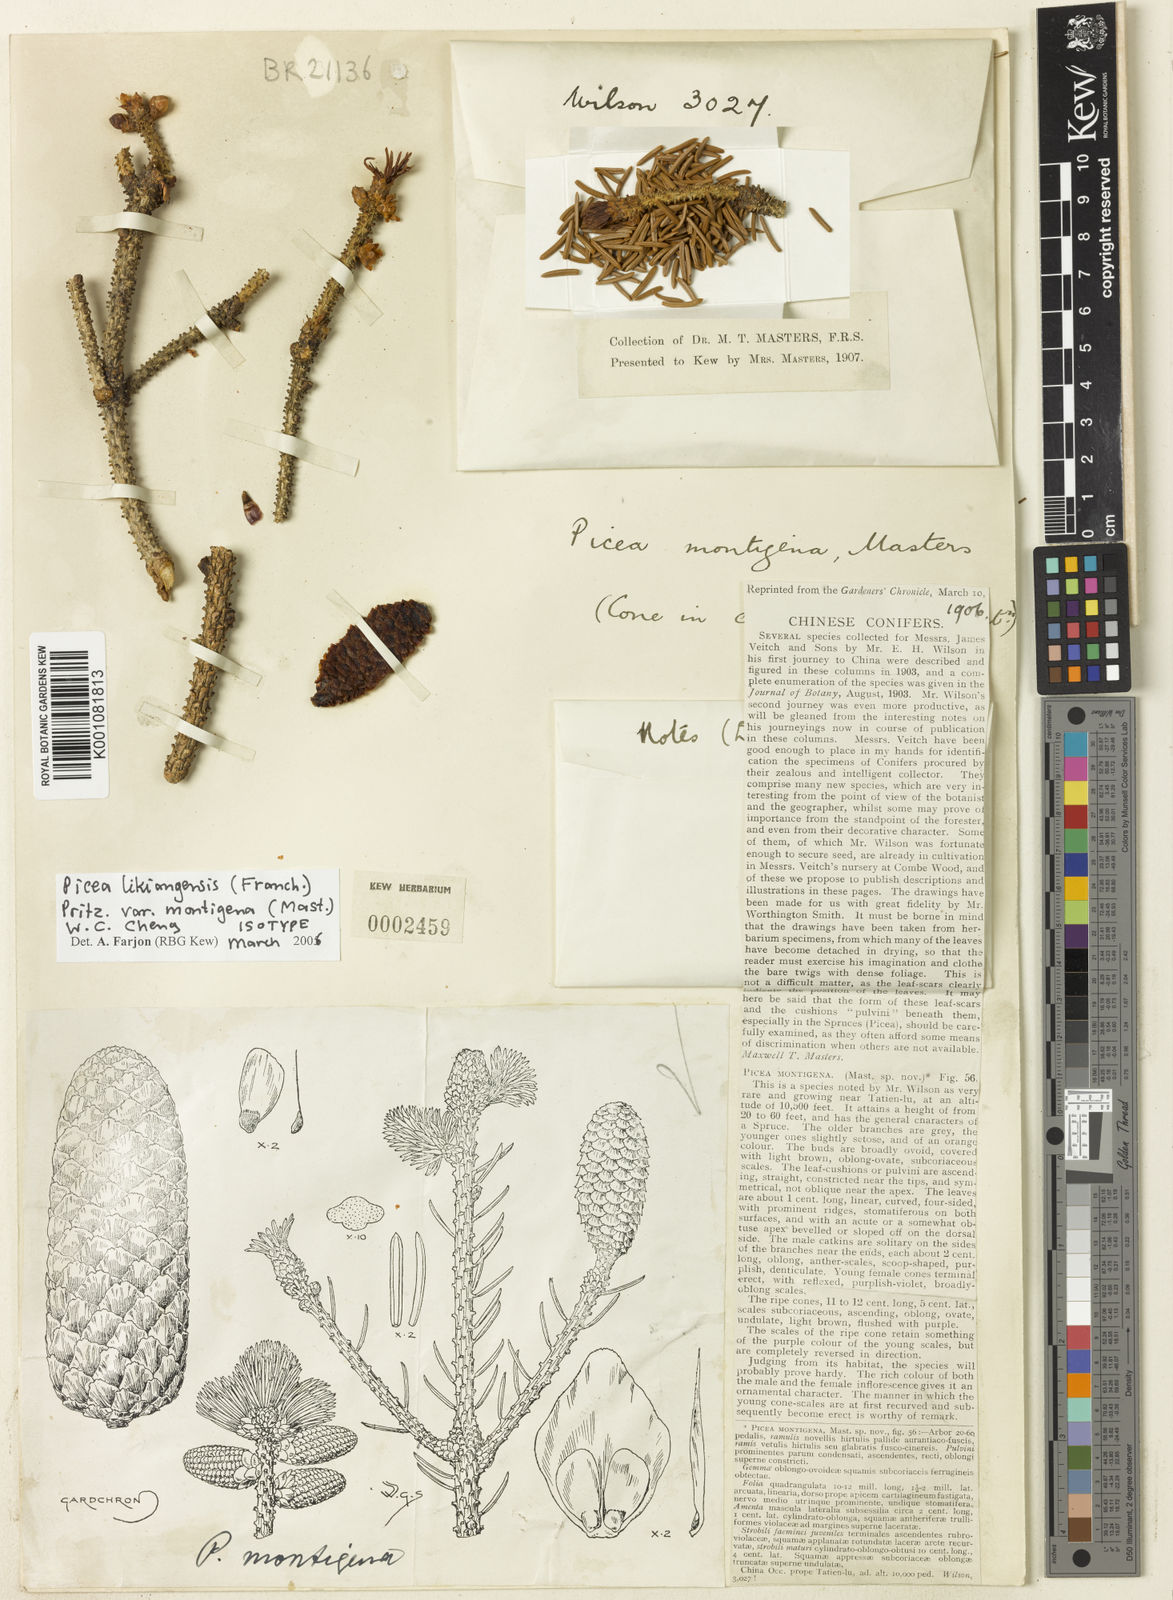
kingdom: Plantae
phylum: Tracheophyta
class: Pinopsida
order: Pinales
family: Pinaceae
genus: Picea
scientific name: Picea likiangensis
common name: Likiang spruce
